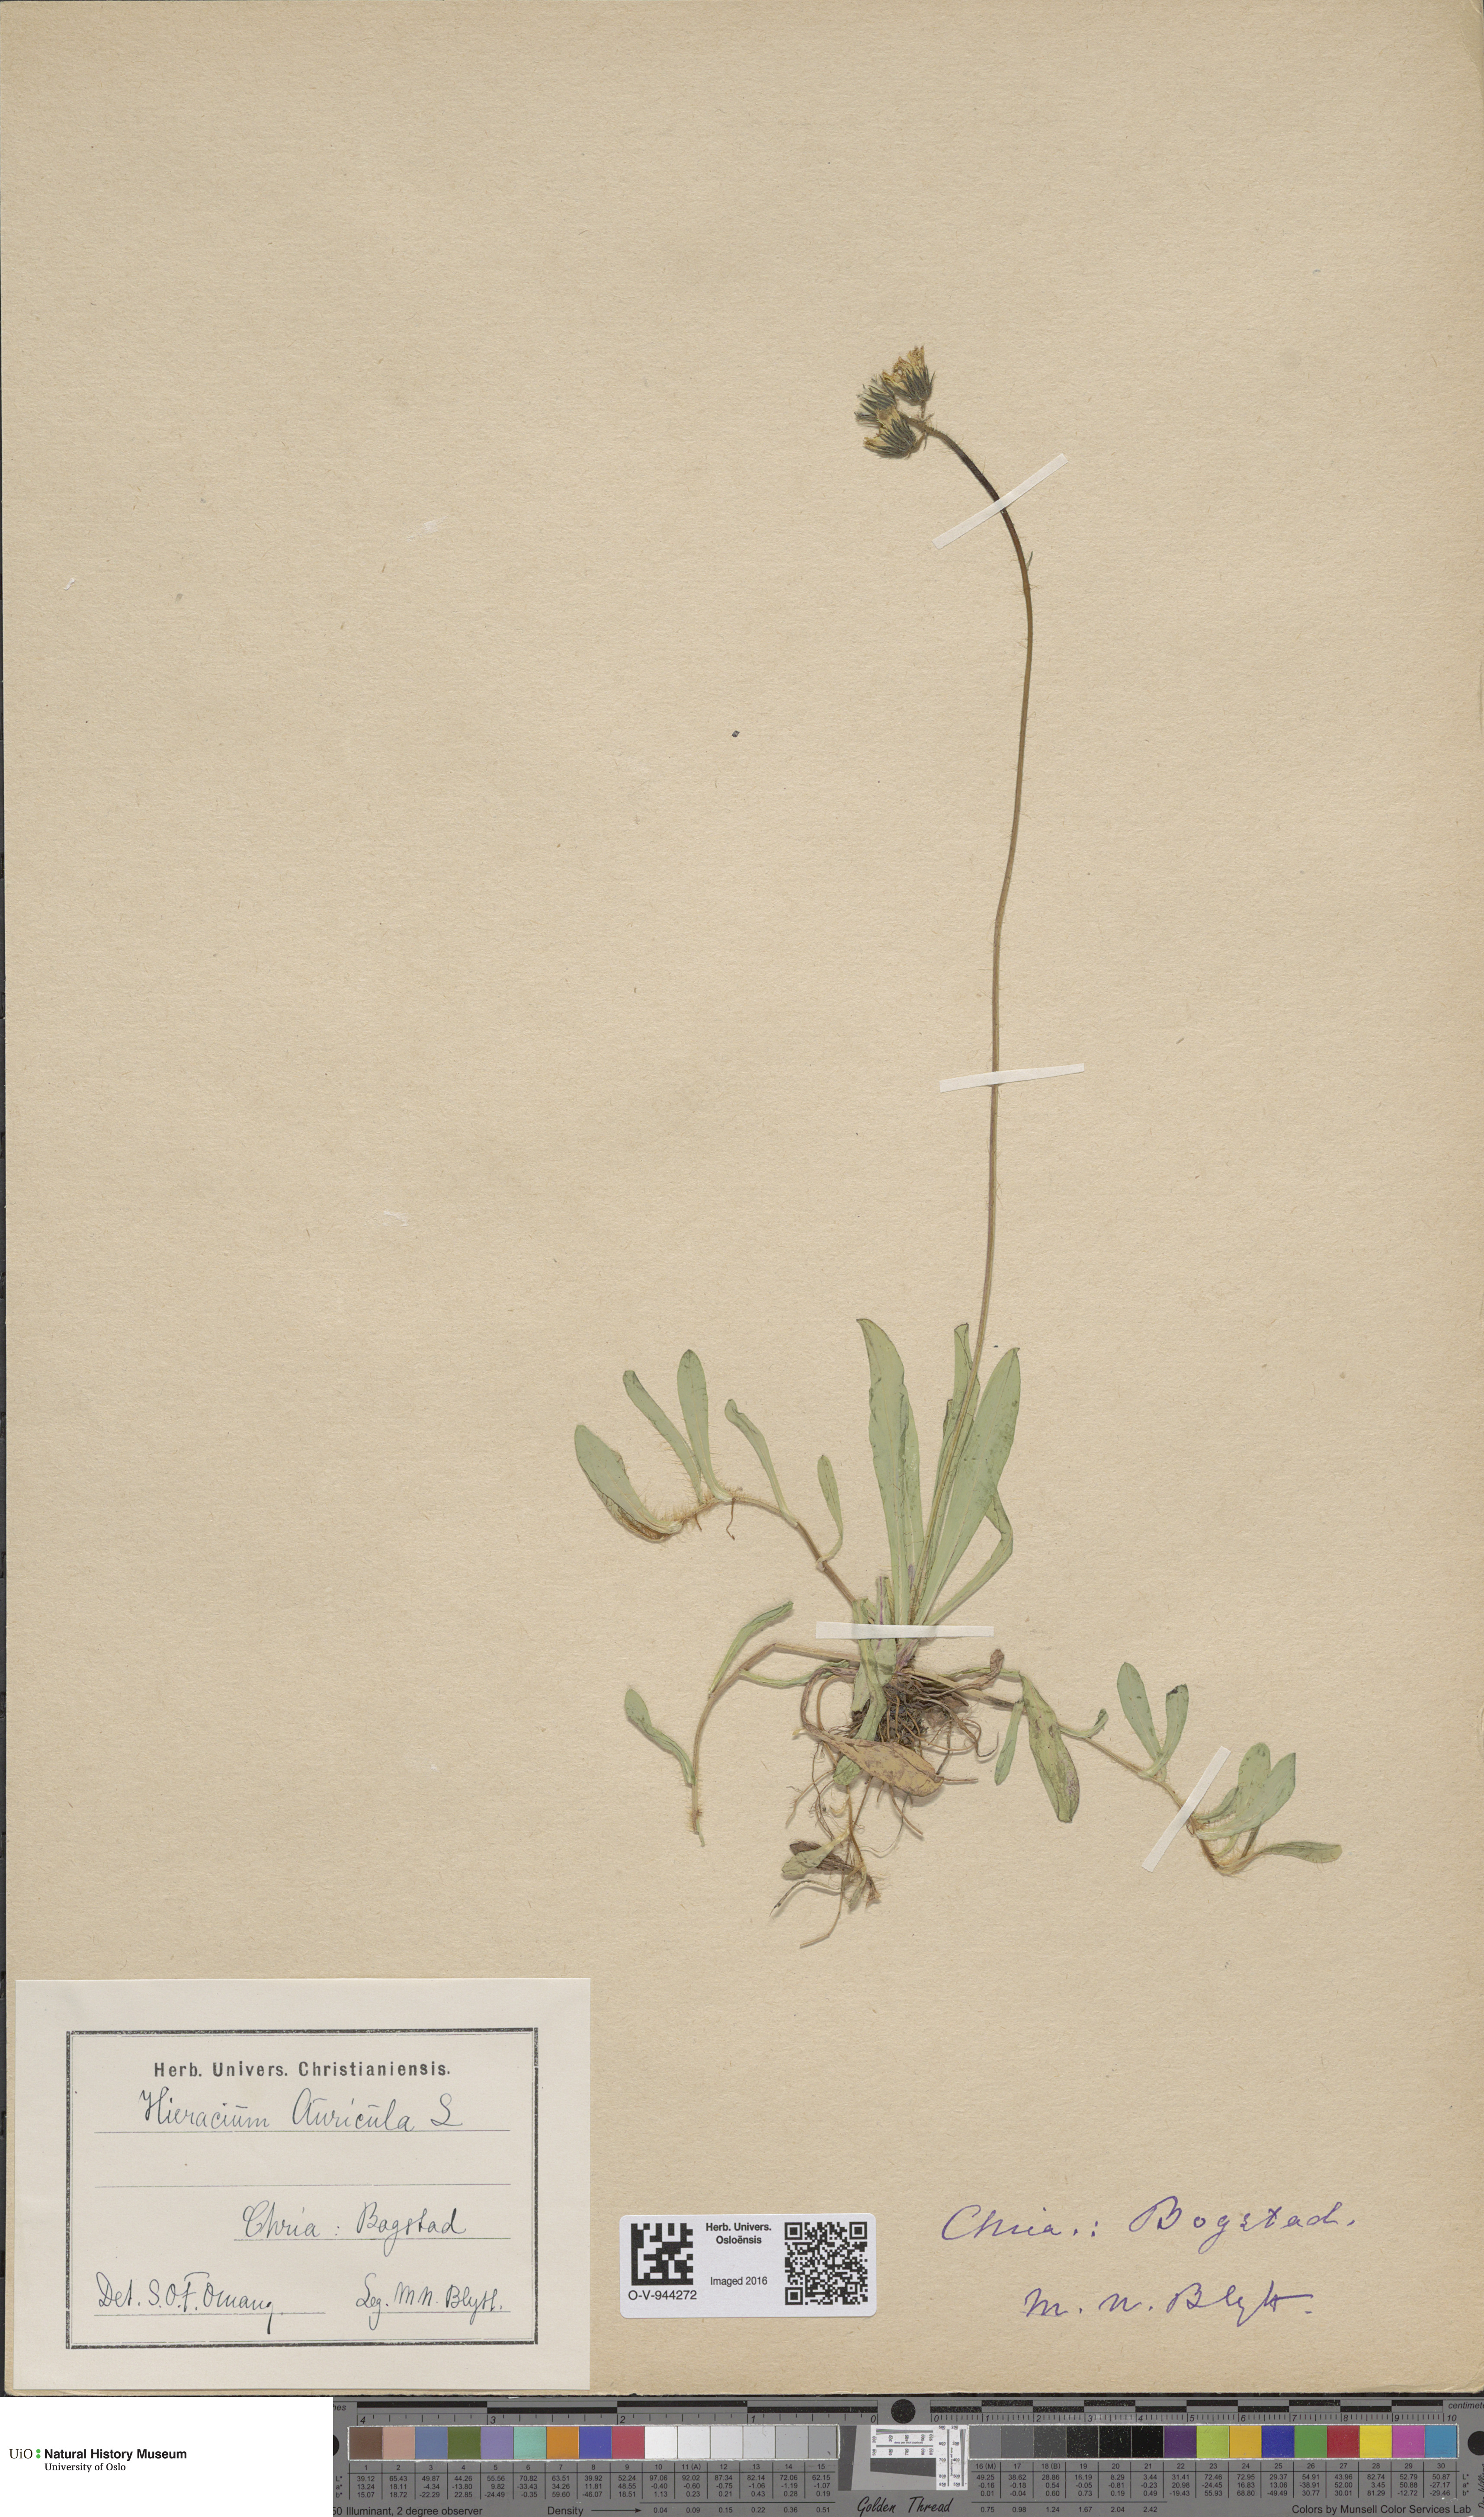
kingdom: Plantae
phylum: Tracheophyta
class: Magnoliopsida
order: Asterales
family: Asteraceae
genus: Pilosella
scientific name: Pilosella lactucella
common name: Glaucous fox-and-cubs
